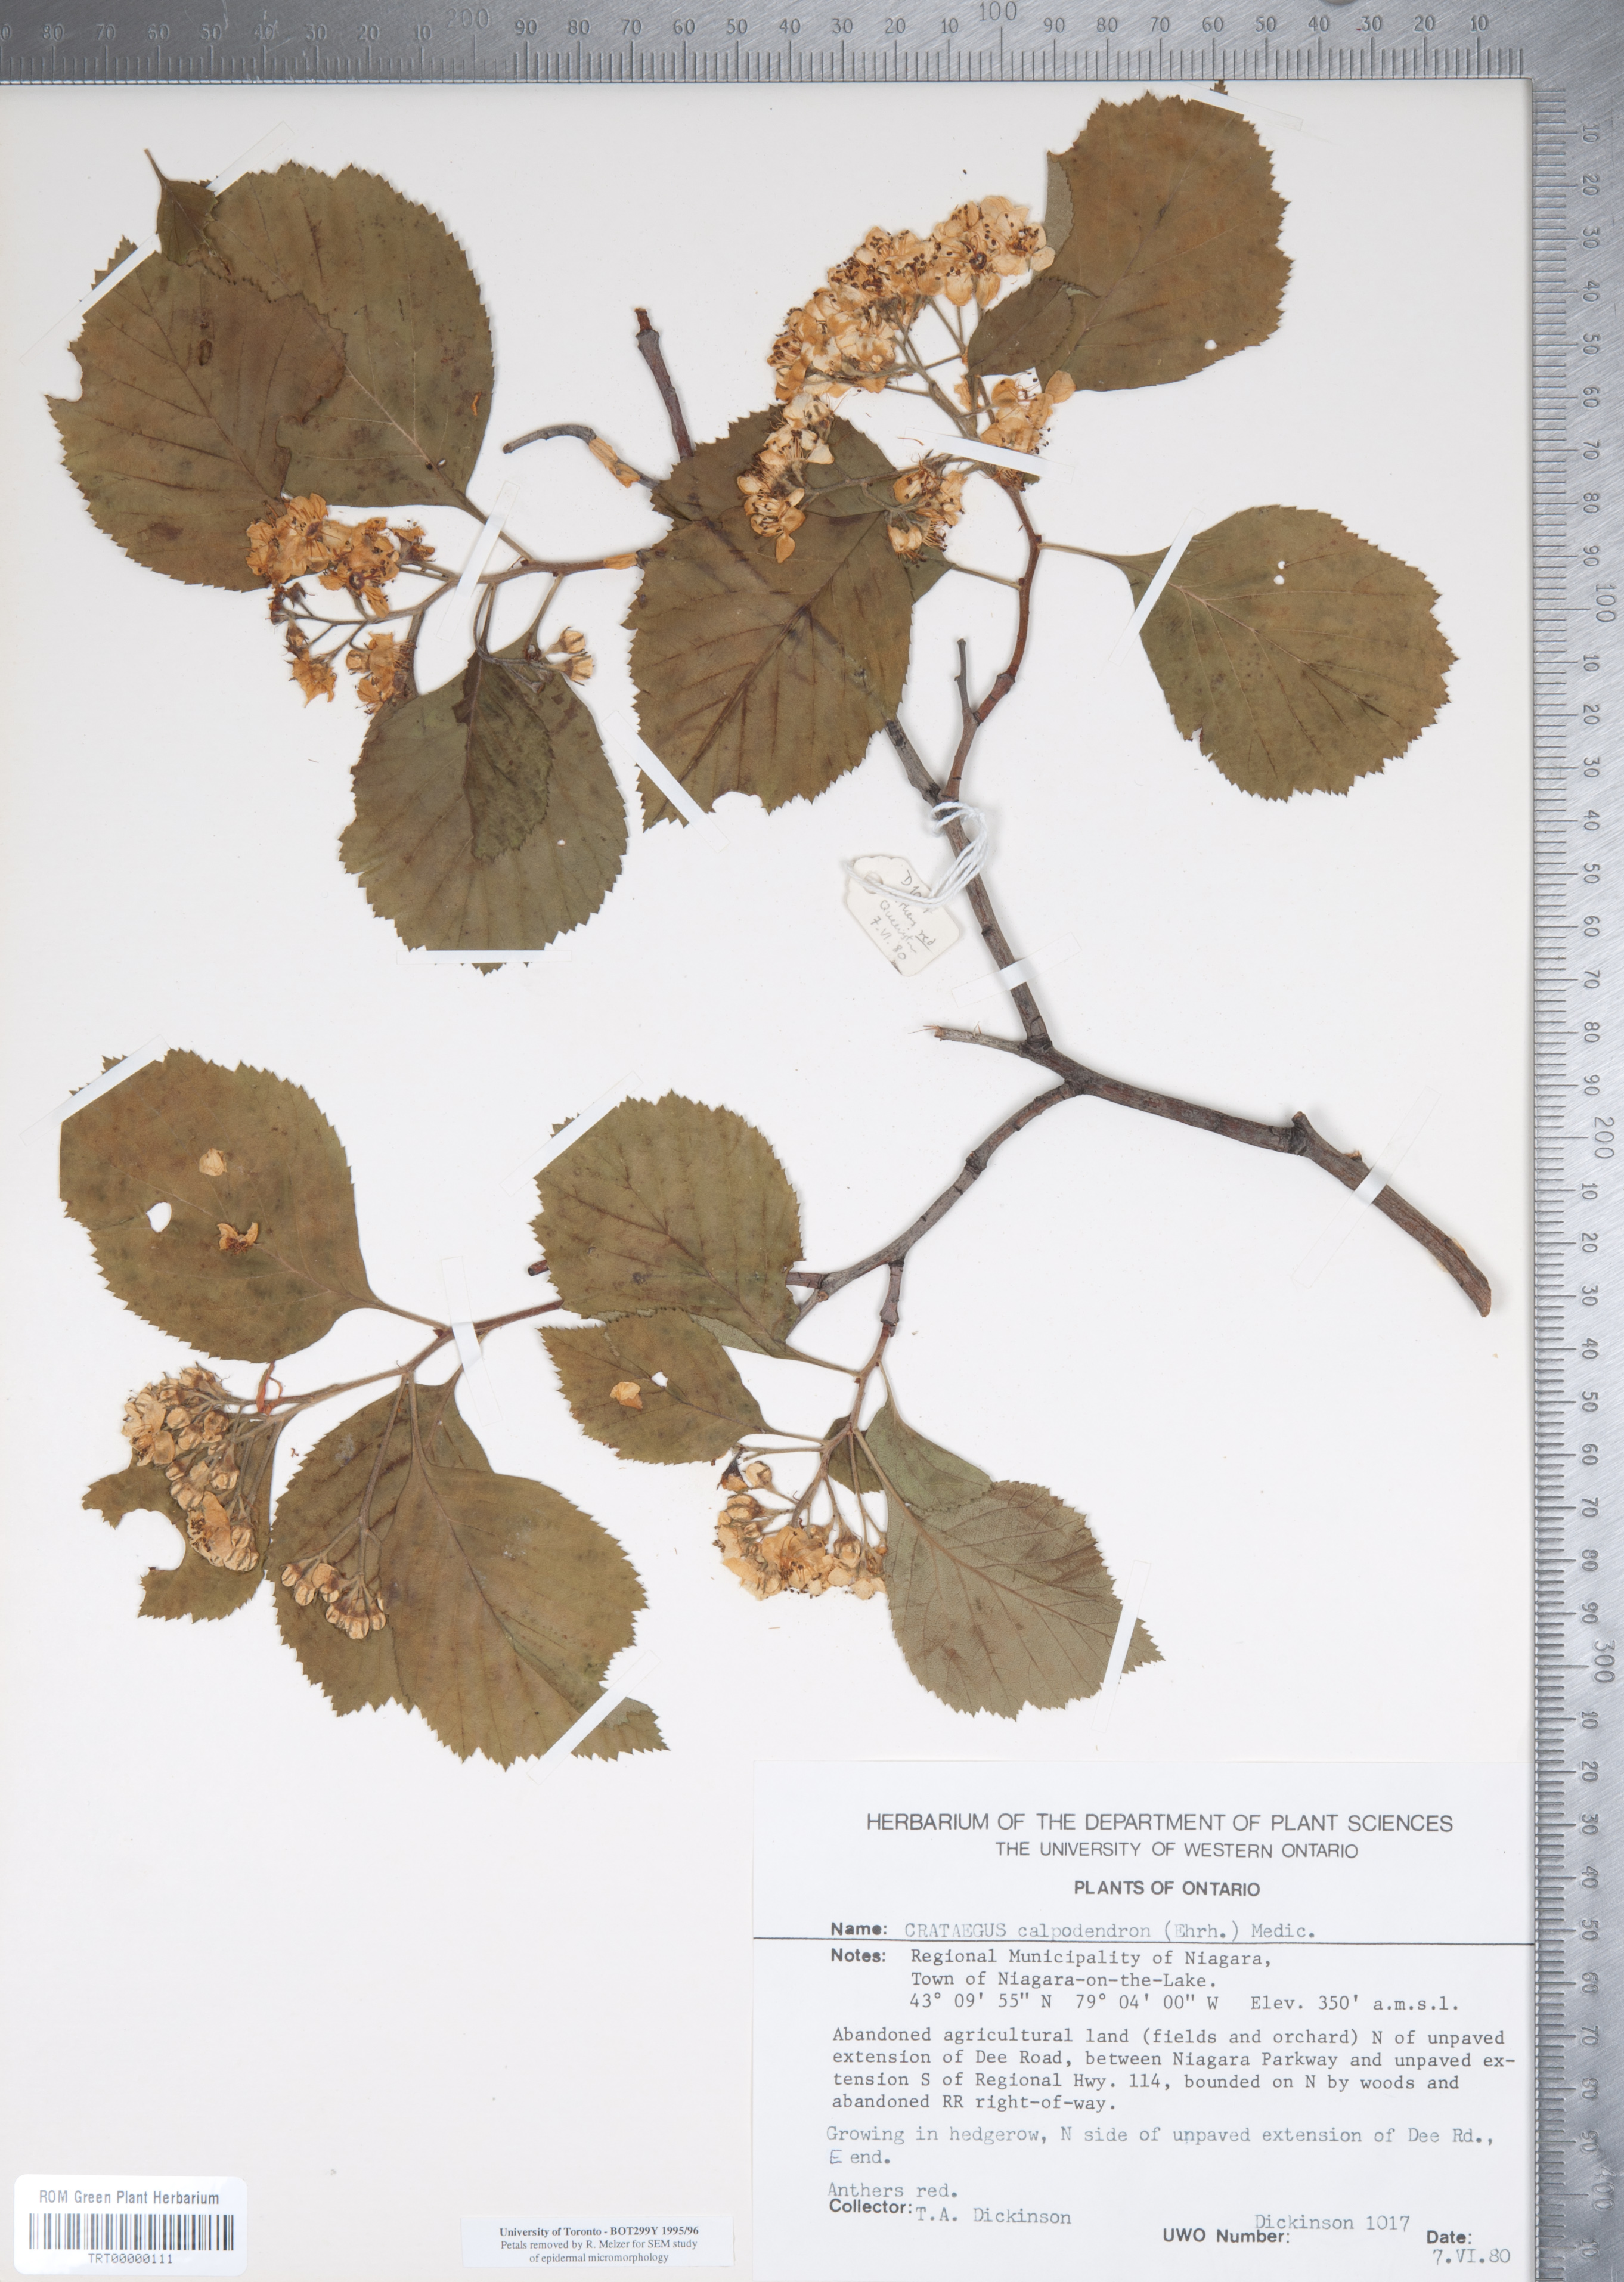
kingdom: Plantae
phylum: Tracheophyta
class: Magnoliopsida
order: Rosales
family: Rosaceae
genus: Crataegus
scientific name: Crataegus calpodendron
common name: Pear hawthorn
